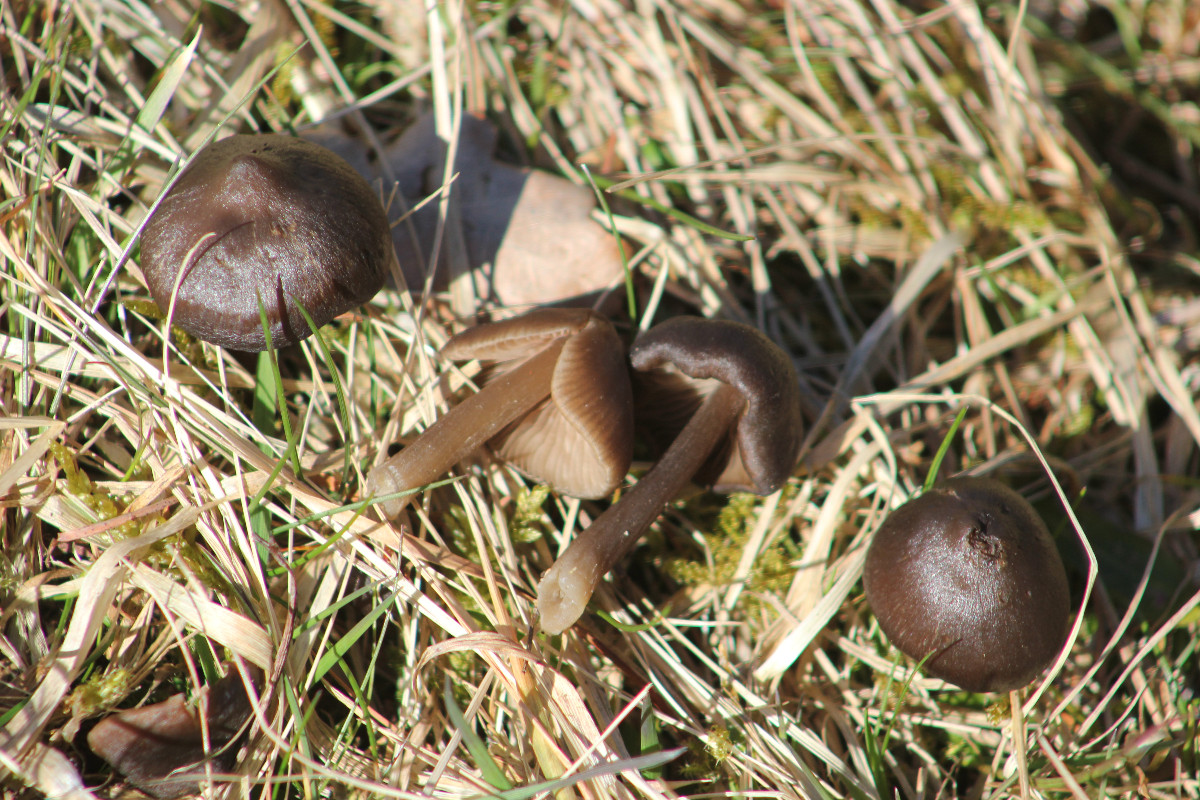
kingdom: Fungi
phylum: Basidiomycota
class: Agaricomycetes
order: Agaricales
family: Entolomataceae
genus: Entoloma
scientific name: Entoloma vernum
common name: vår-rødblad
